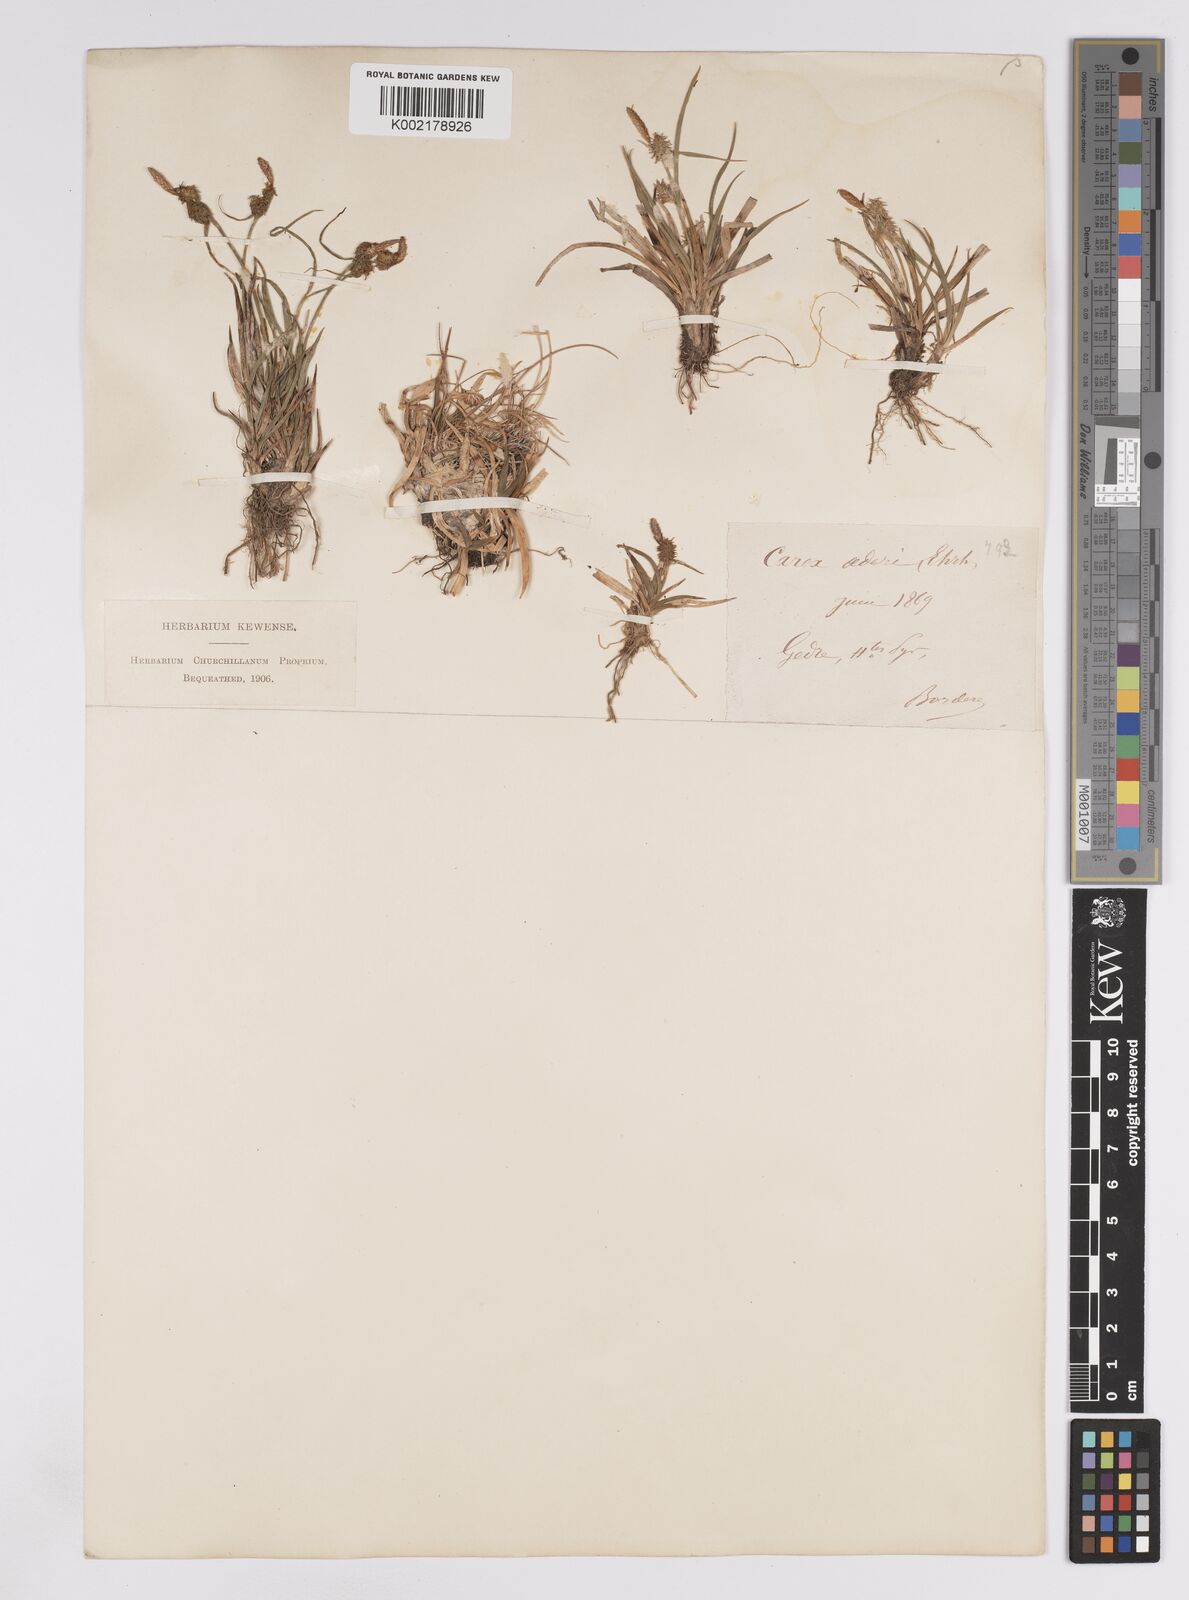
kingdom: Plantae
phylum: Tracheophyta
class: Liliopsida
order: Poales
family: Cyperaceae
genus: Carex
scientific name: Carex lepidocarpa
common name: Long-stalked yellow-sedge
